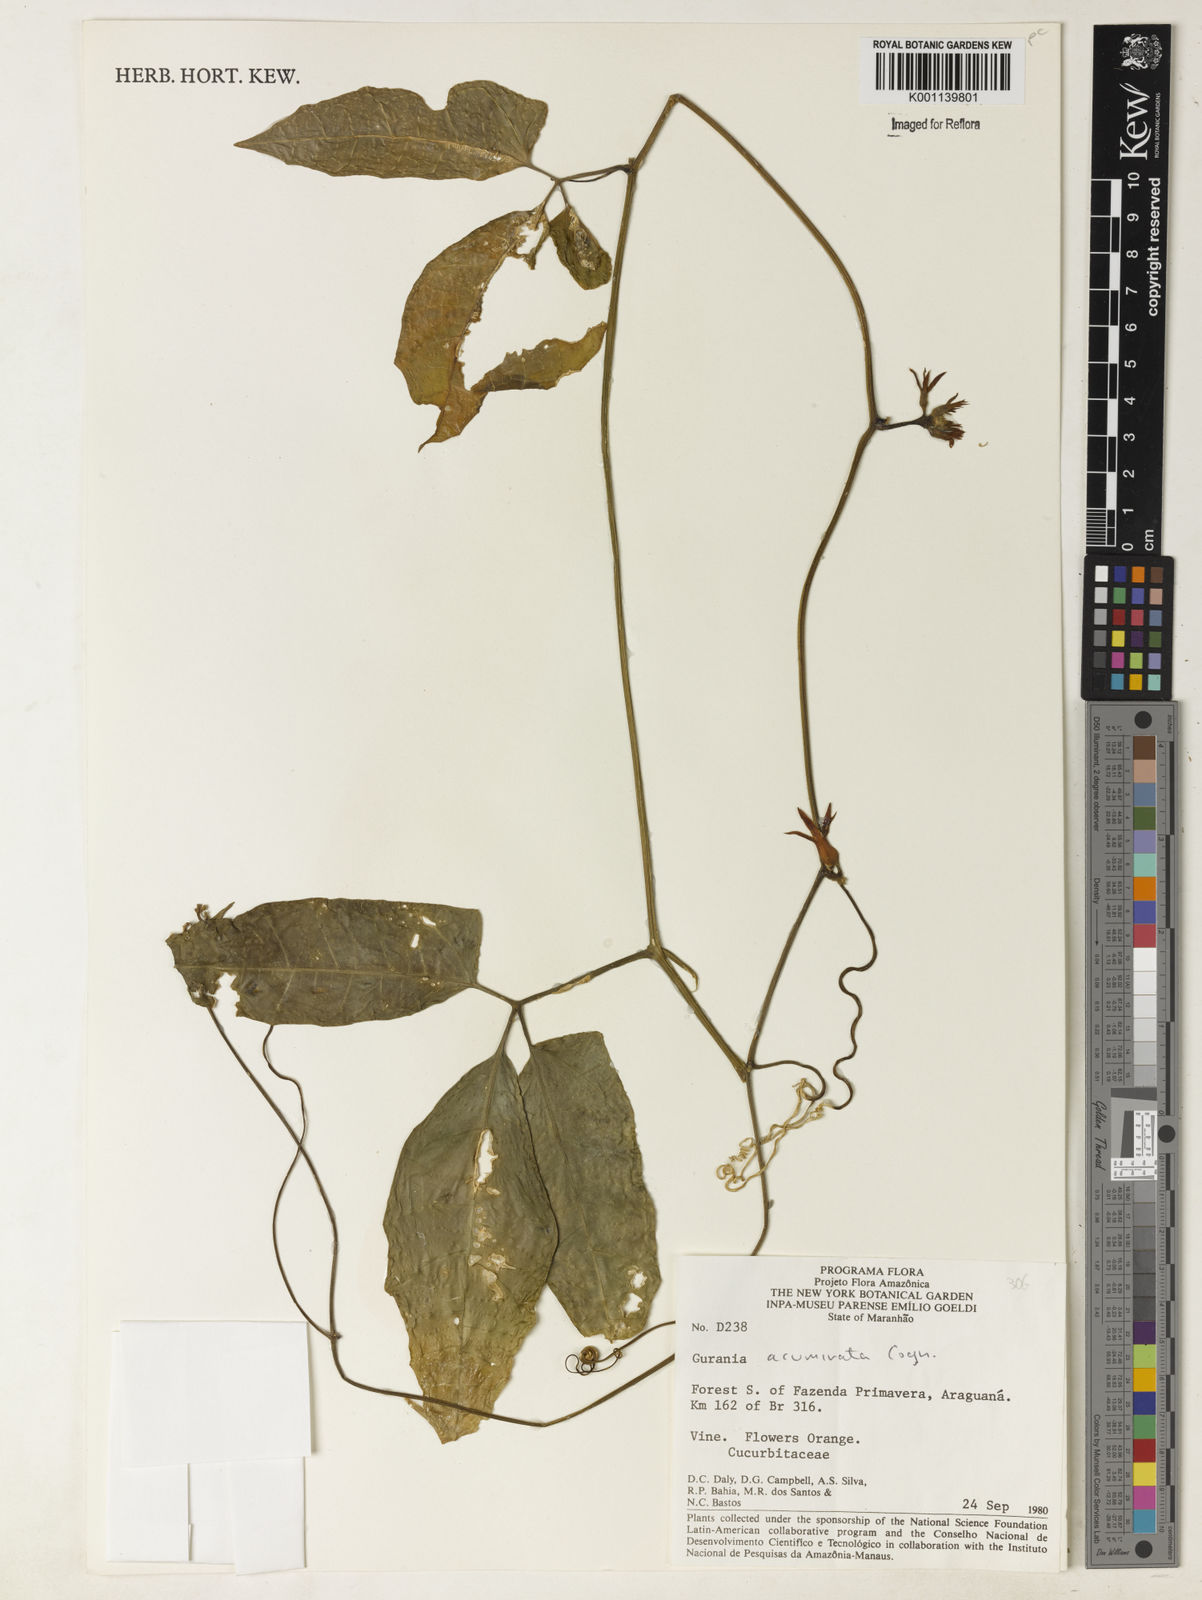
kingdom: Plantae
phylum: Tracheophyta
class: Magnoliopsida
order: Cucurbitales
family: Cucurbitaceae
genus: Gurania
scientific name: Gurania acuminata
